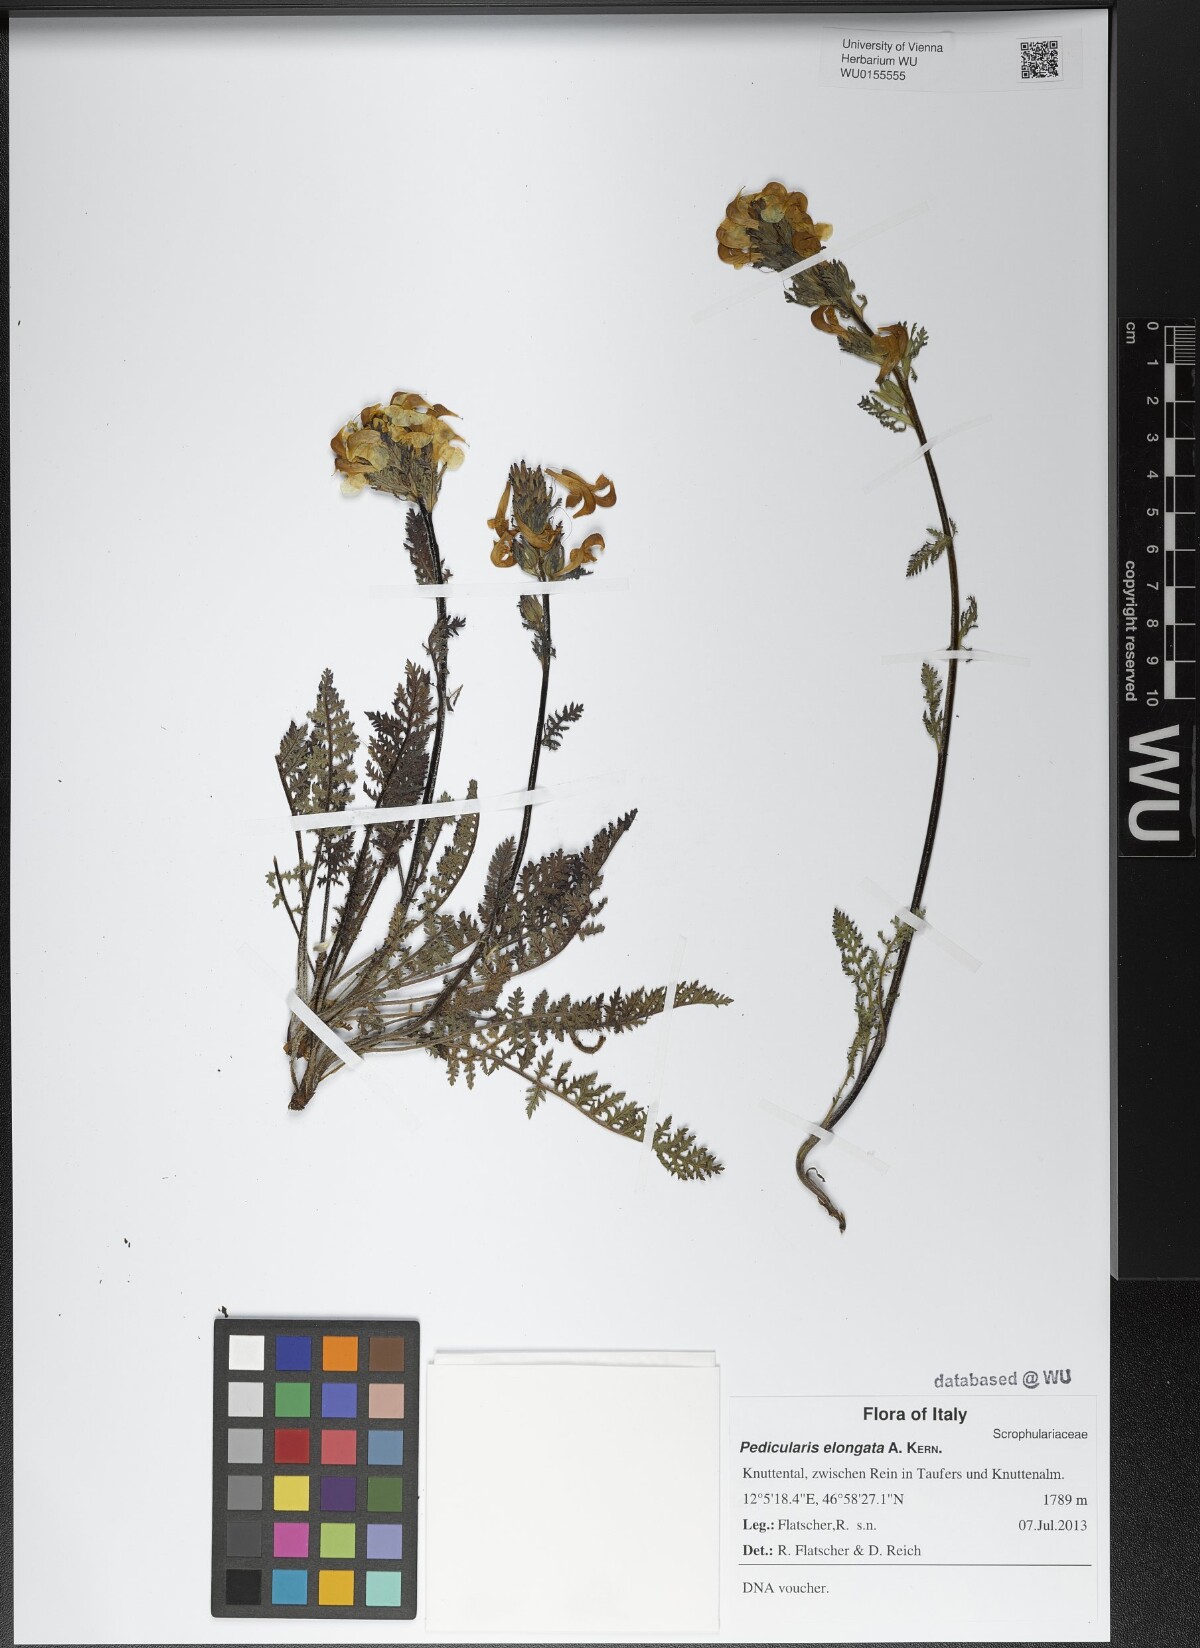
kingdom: Plantae
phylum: Tracheophyta
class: Magnoliopsida
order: Lamiales
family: Orobanchaceae
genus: Pedicularis
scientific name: Pedicularis elongata
